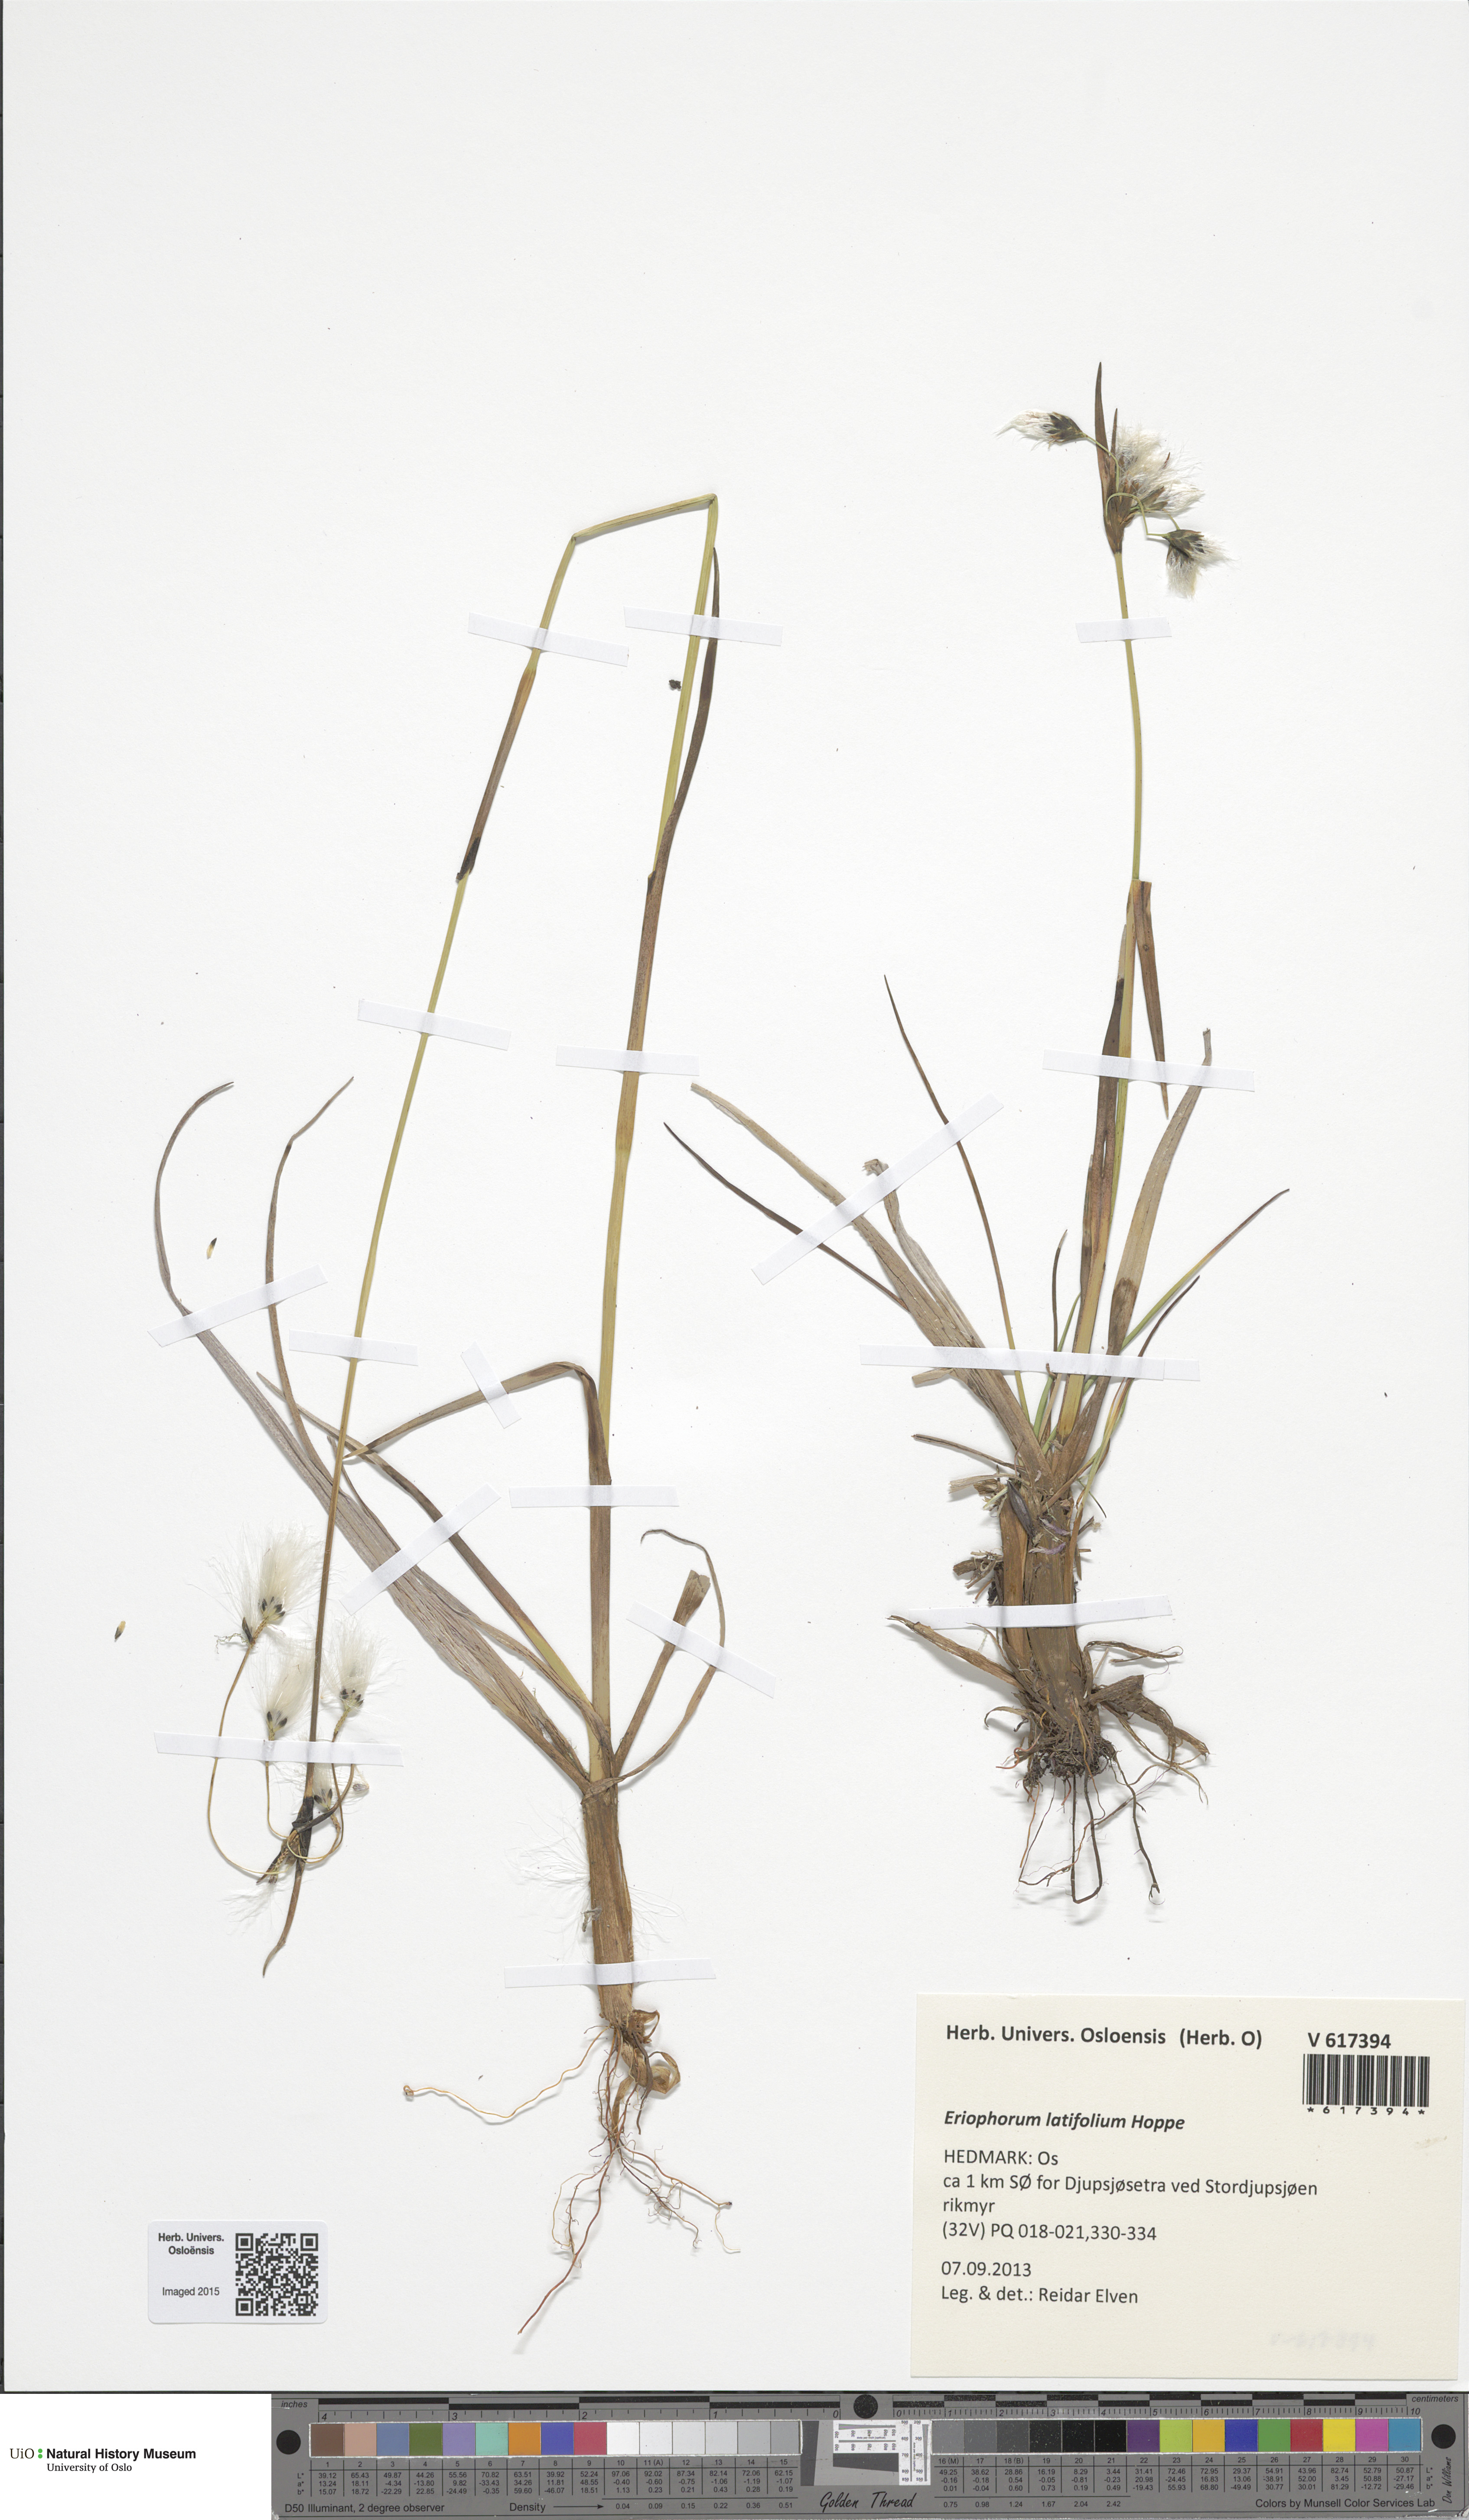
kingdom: Plantae
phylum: Tracheophyta
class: Liliopsida
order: Poales
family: Cyperaceae
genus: Eriophorum
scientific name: Eriophorum latifolium
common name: Broad-leaved cottongrass
